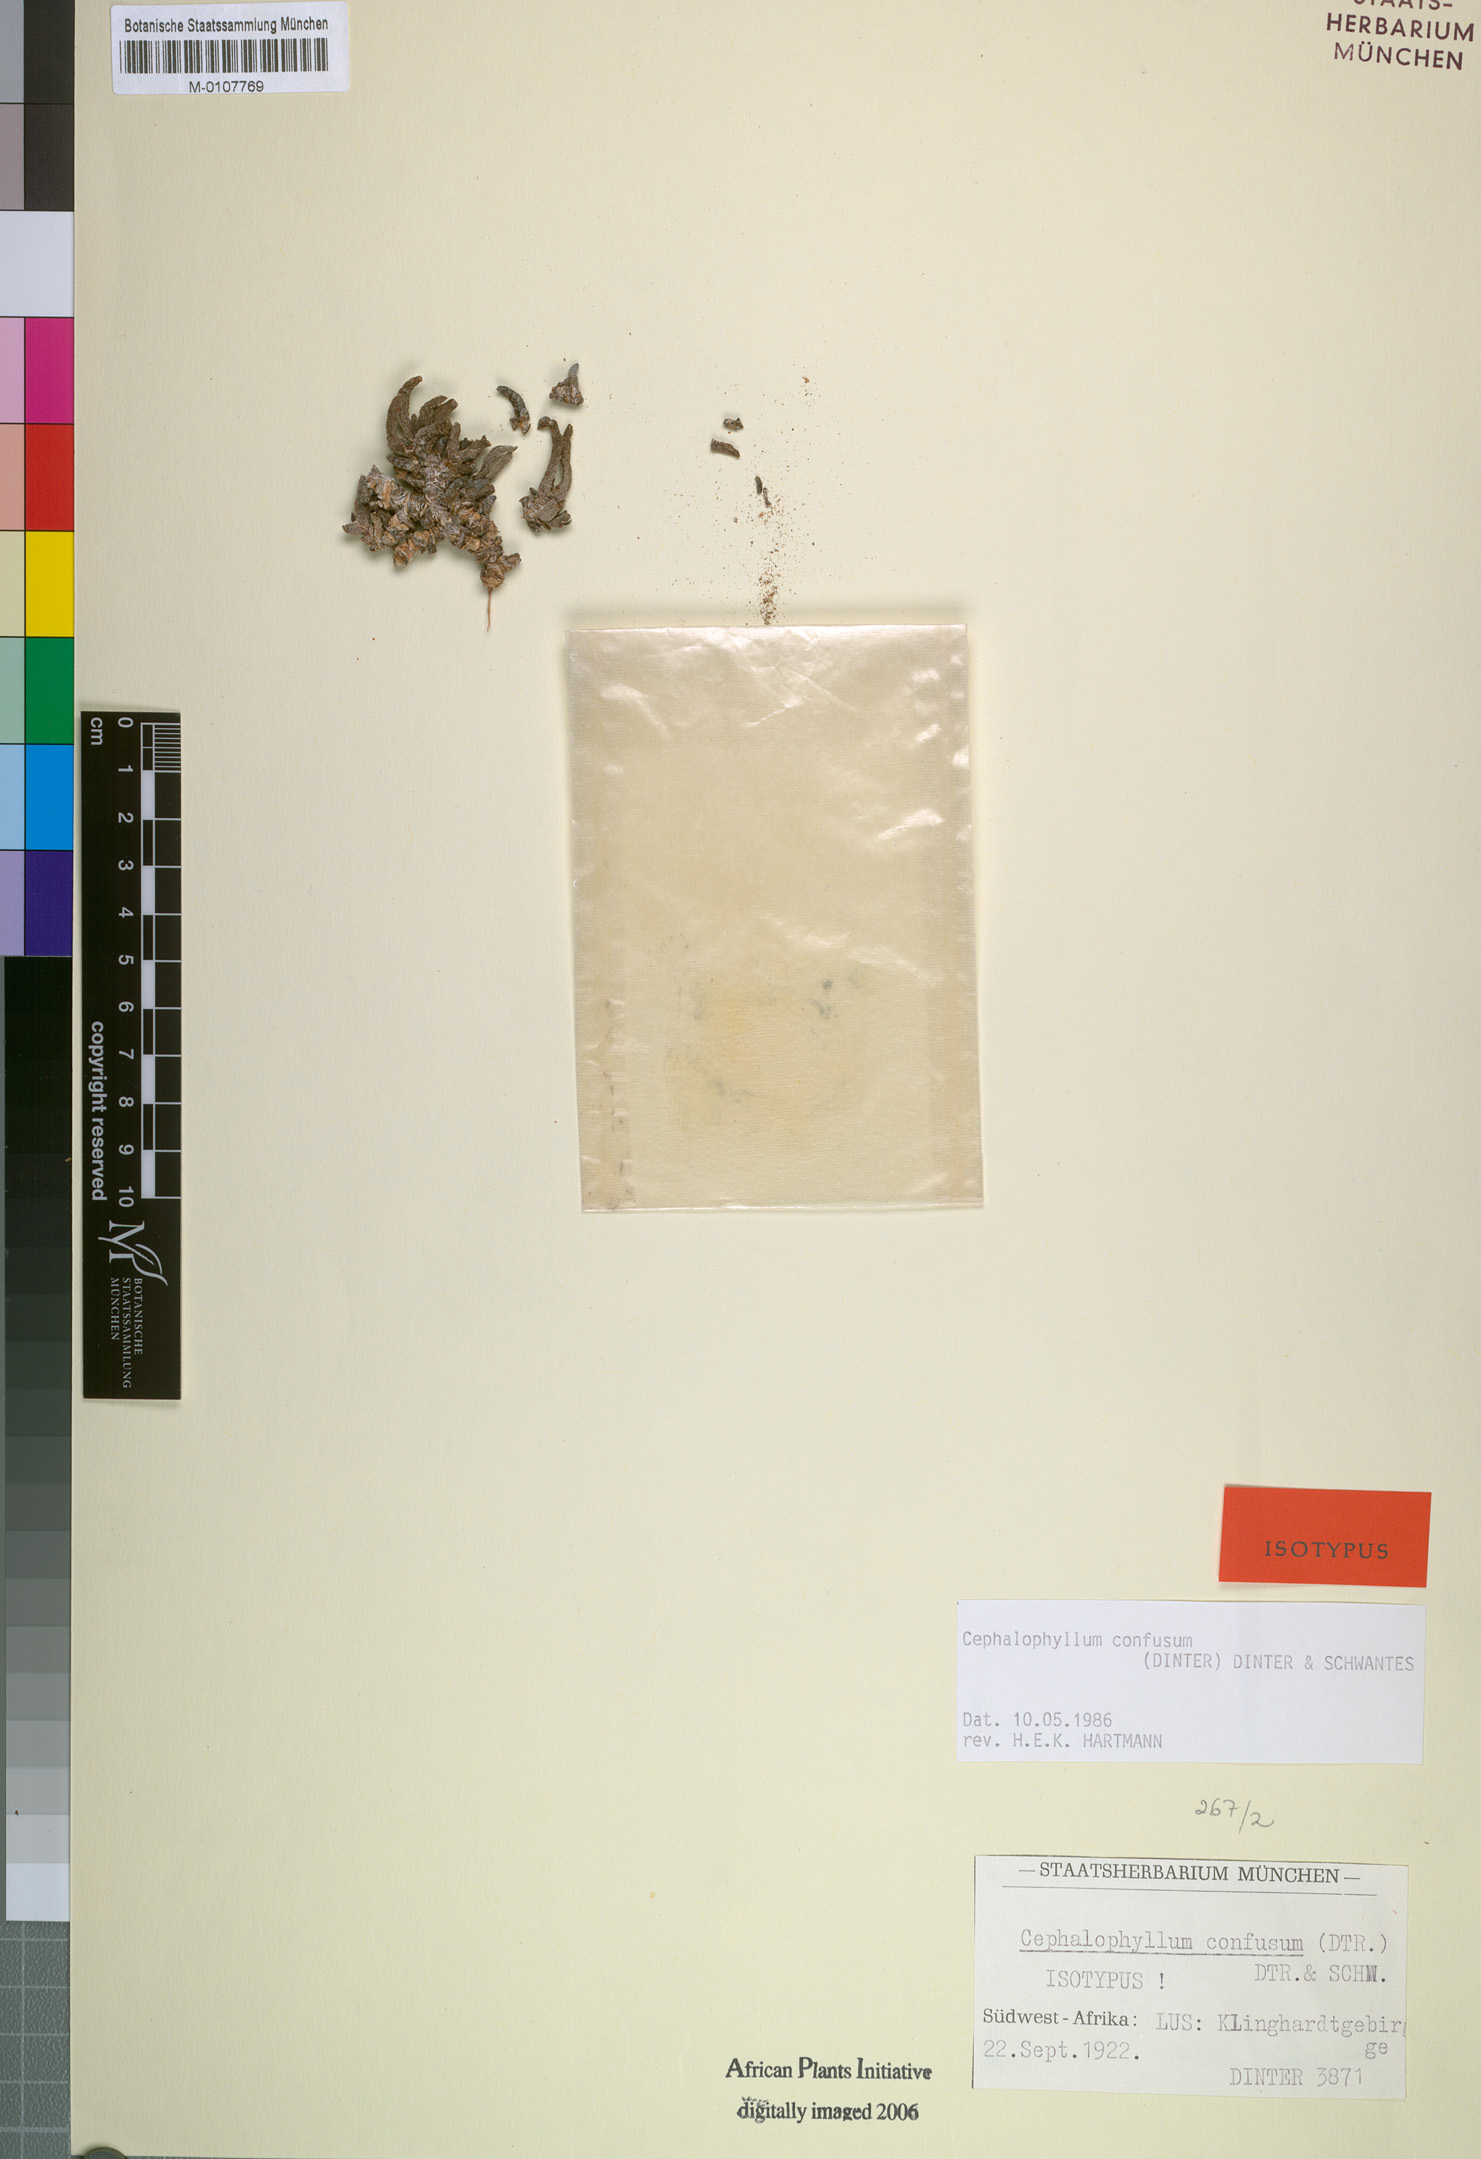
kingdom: Plantae
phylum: Tracheophyta
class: Magnoliopsida
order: Caryophyllales
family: Aizoaceae
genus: Cephalophyllum
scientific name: Cephalophyllum confusum
